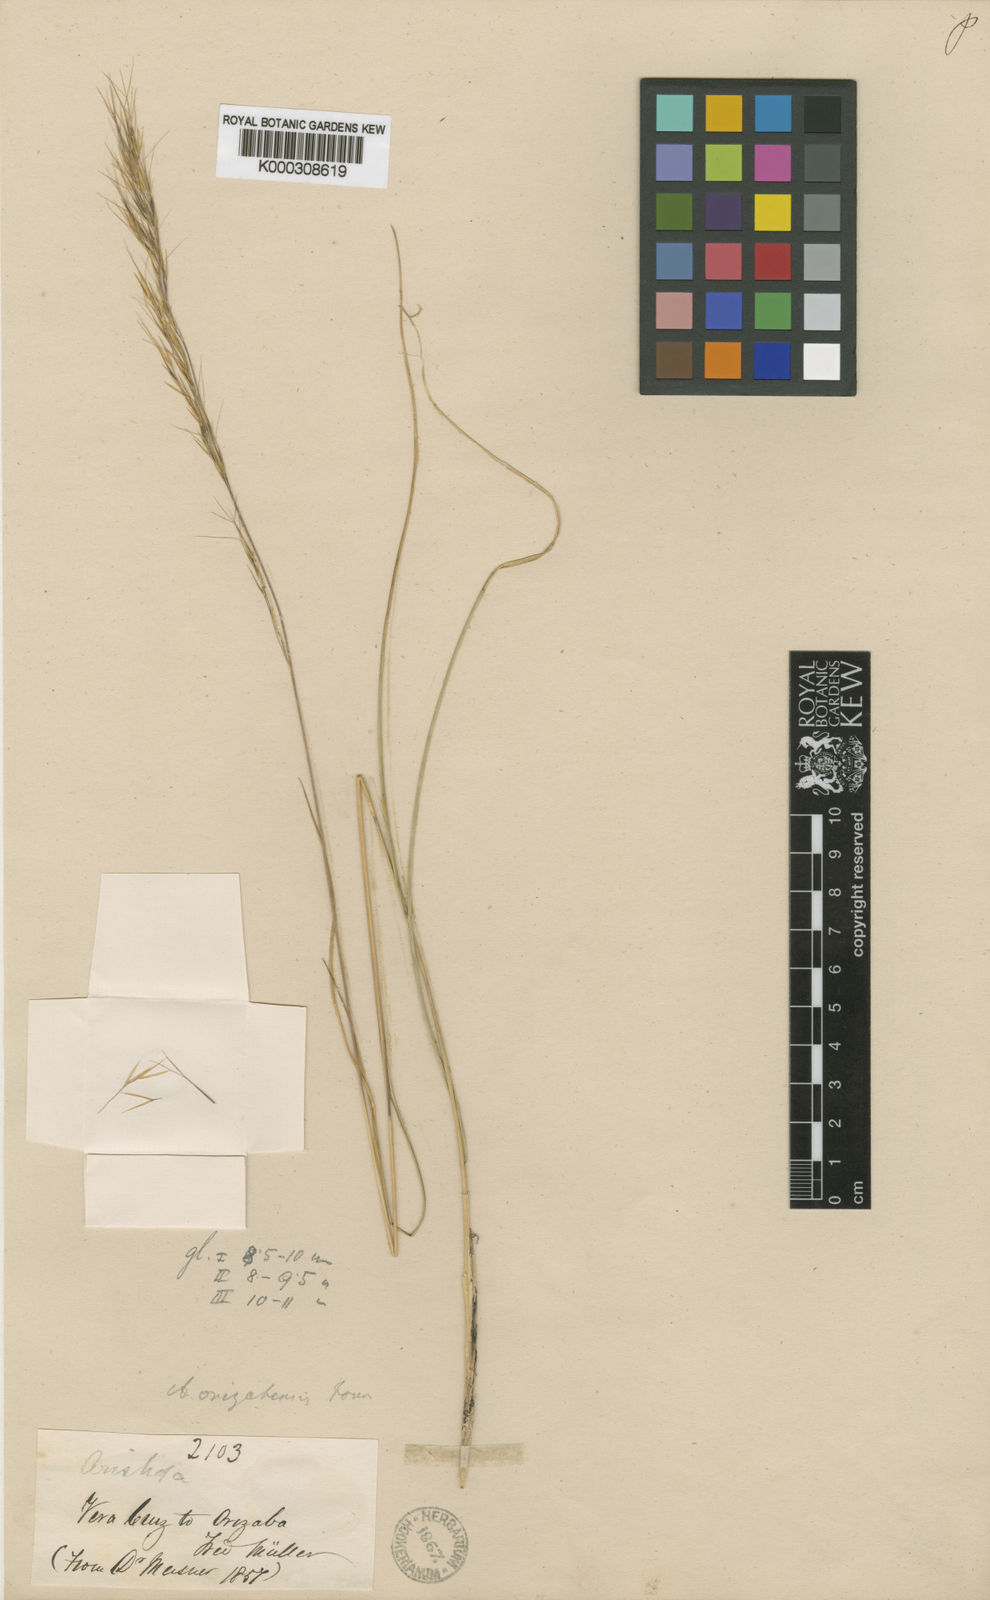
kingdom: Plantae
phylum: Tracheophyta
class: Liliopsida
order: Poales
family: Poaceae
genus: Aristida
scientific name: Aristida arizonica
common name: Arizona threeawn
